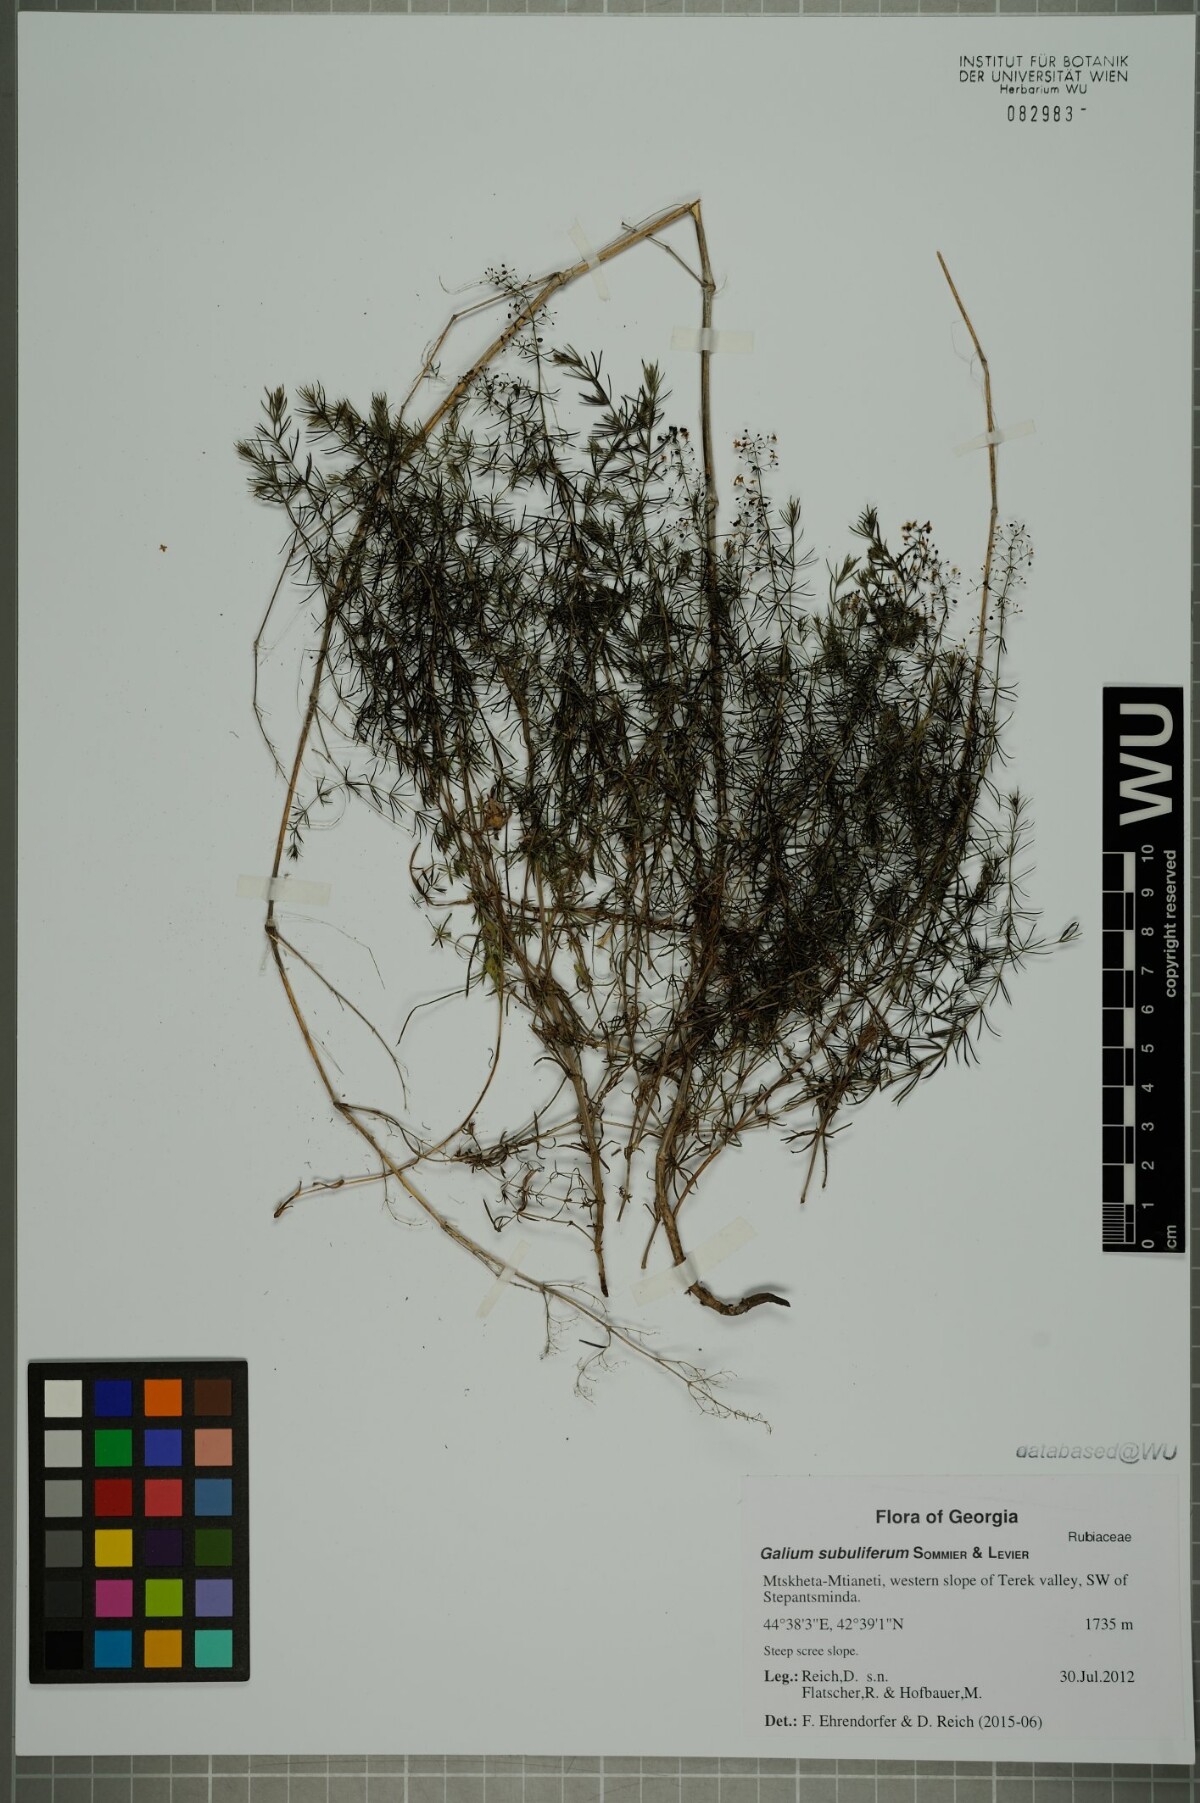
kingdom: Plantae
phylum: Tracheophyta
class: Magnoliopsida
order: Gentianales
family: Rubiaceae
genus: Galium
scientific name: Galium subuliferum
